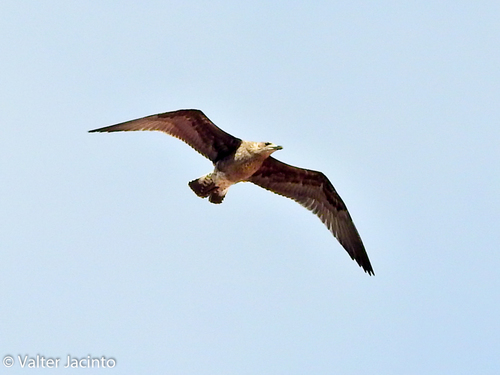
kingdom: Animalia
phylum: Chordata
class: Aves
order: Charadriiformes
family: Laridae
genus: Larus
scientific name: Larus michahellis
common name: Yellow-legged gull
